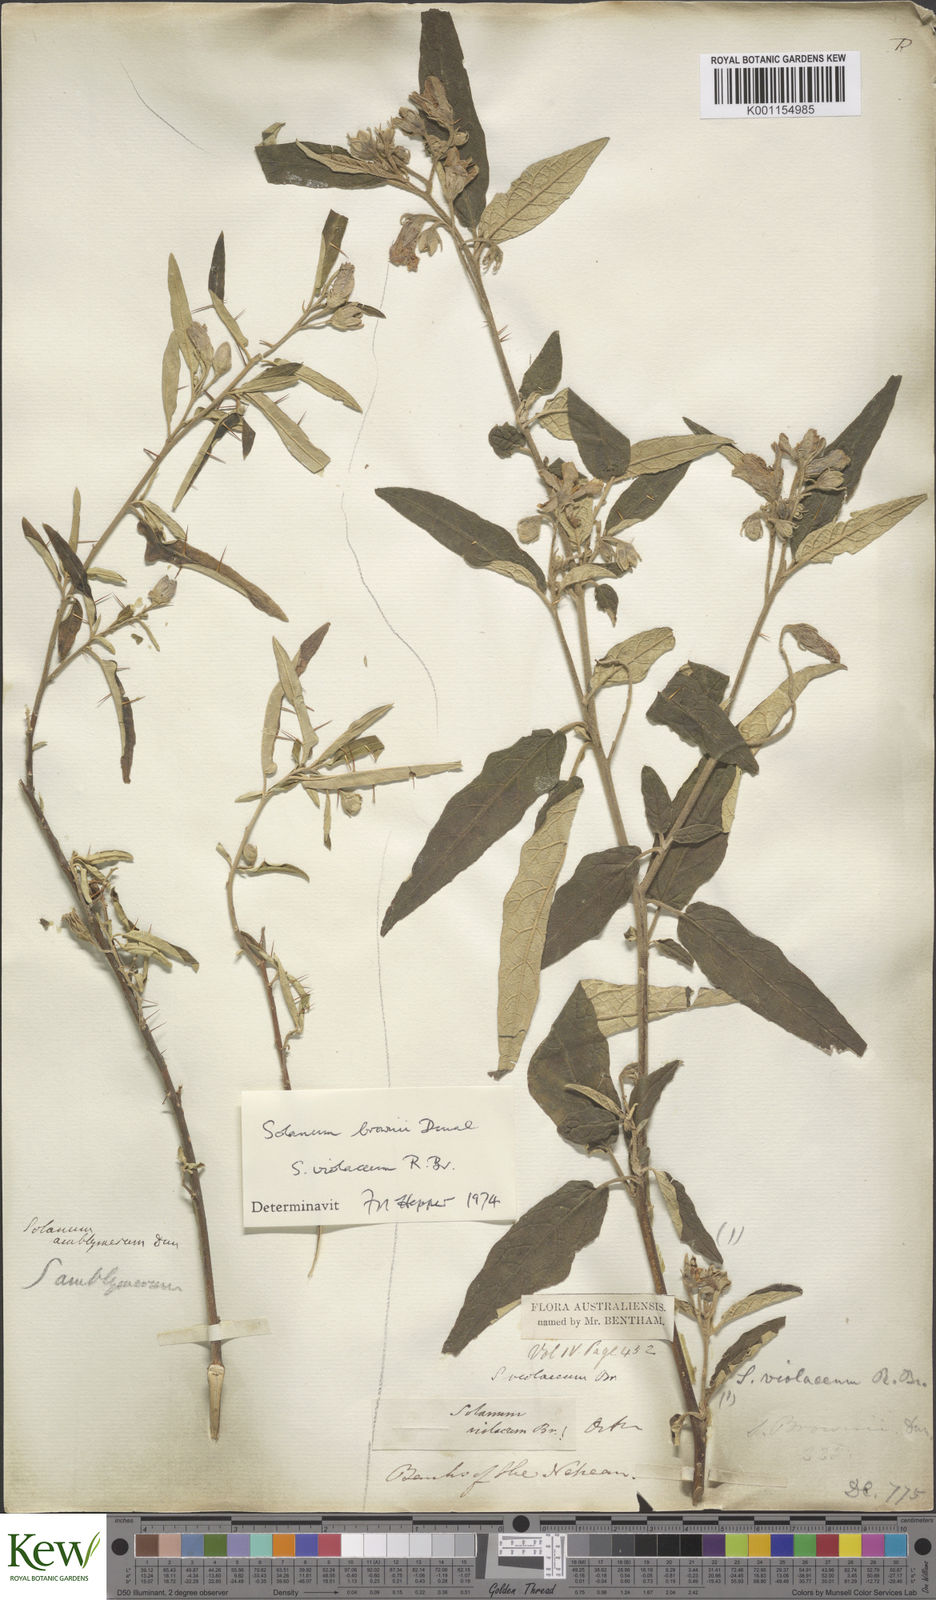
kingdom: Plantae
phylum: Tracheophyta
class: Magnoliopsida
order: Solanales
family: Solanaceae
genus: Solanum
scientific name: Solanum brownii
